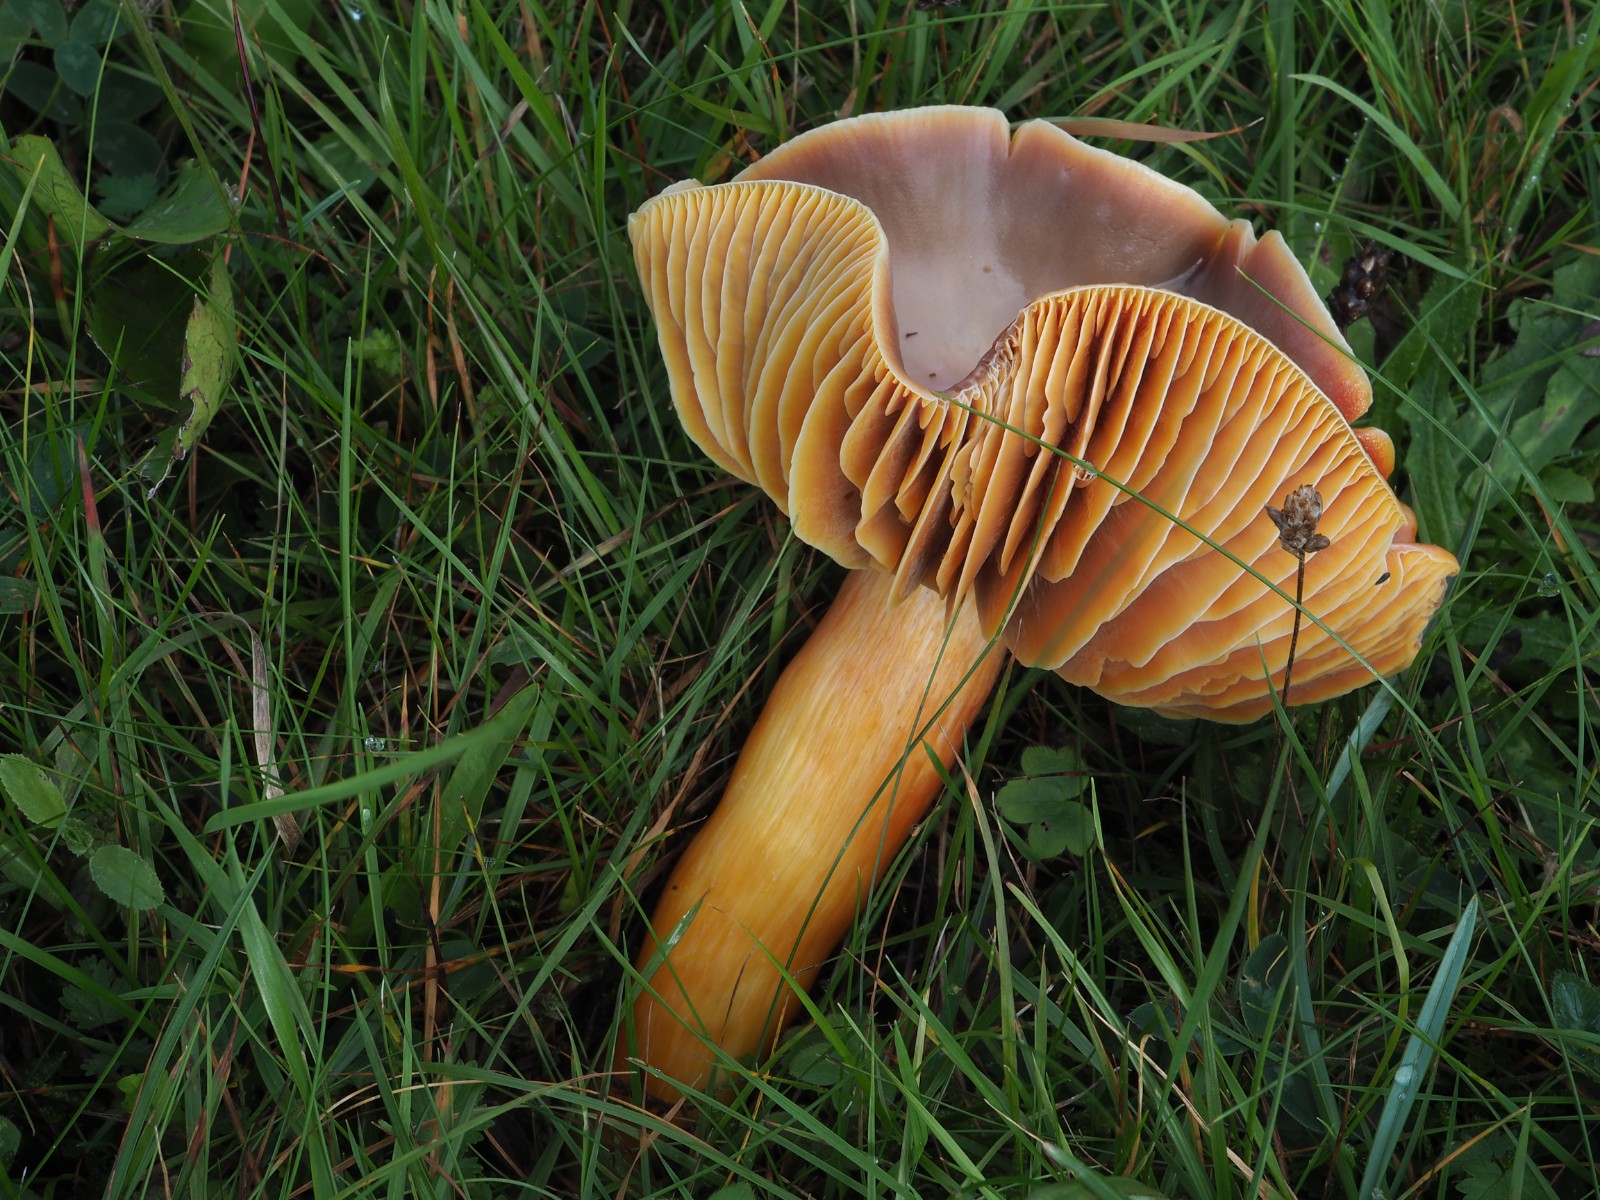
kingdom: Fungi
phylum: Basidiomycota
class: Agaricomycetes
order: Agaricales
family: Hygrophoraceae
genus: Hygrocybe
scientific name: Hygrocybe punicea
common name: skarlagen-vokshat
